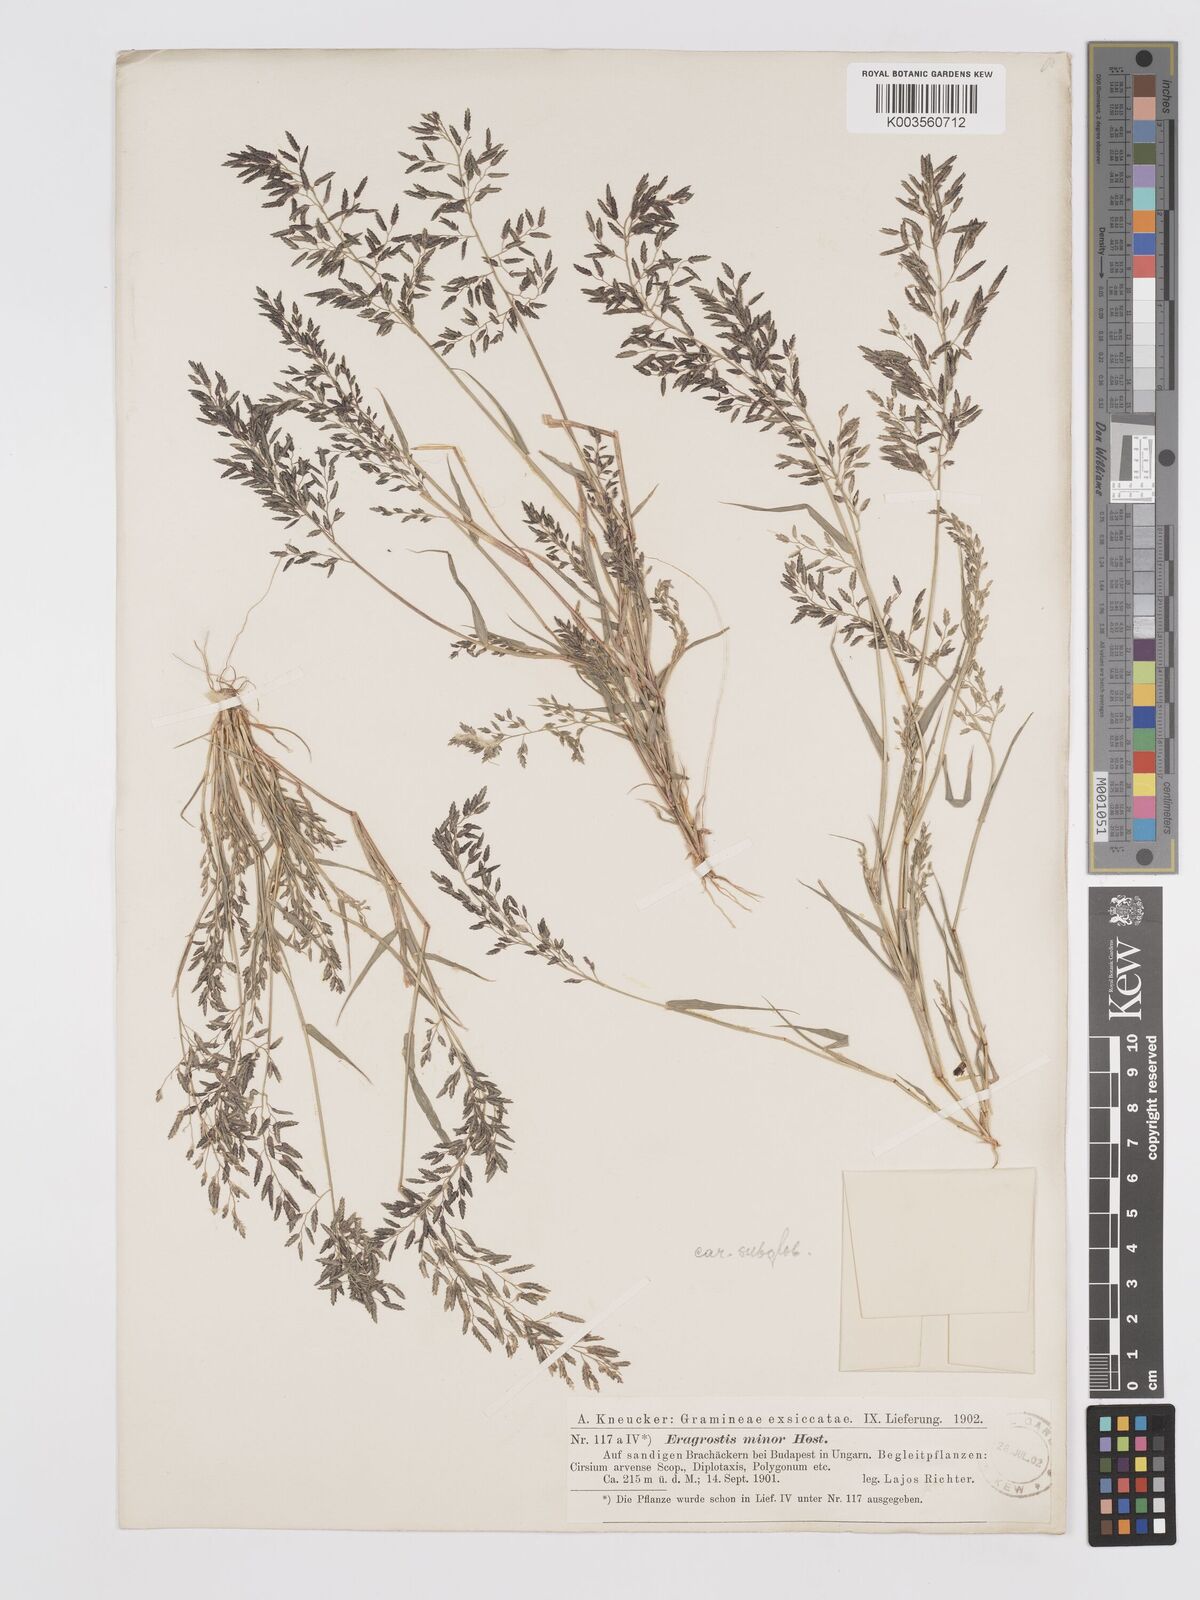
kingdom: Plantae
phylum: Tracheophyta
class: Liliopsida
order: Poales
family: Poaceae
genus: Eragrostis
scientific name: Eragrostis minor
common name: Small love-grass
